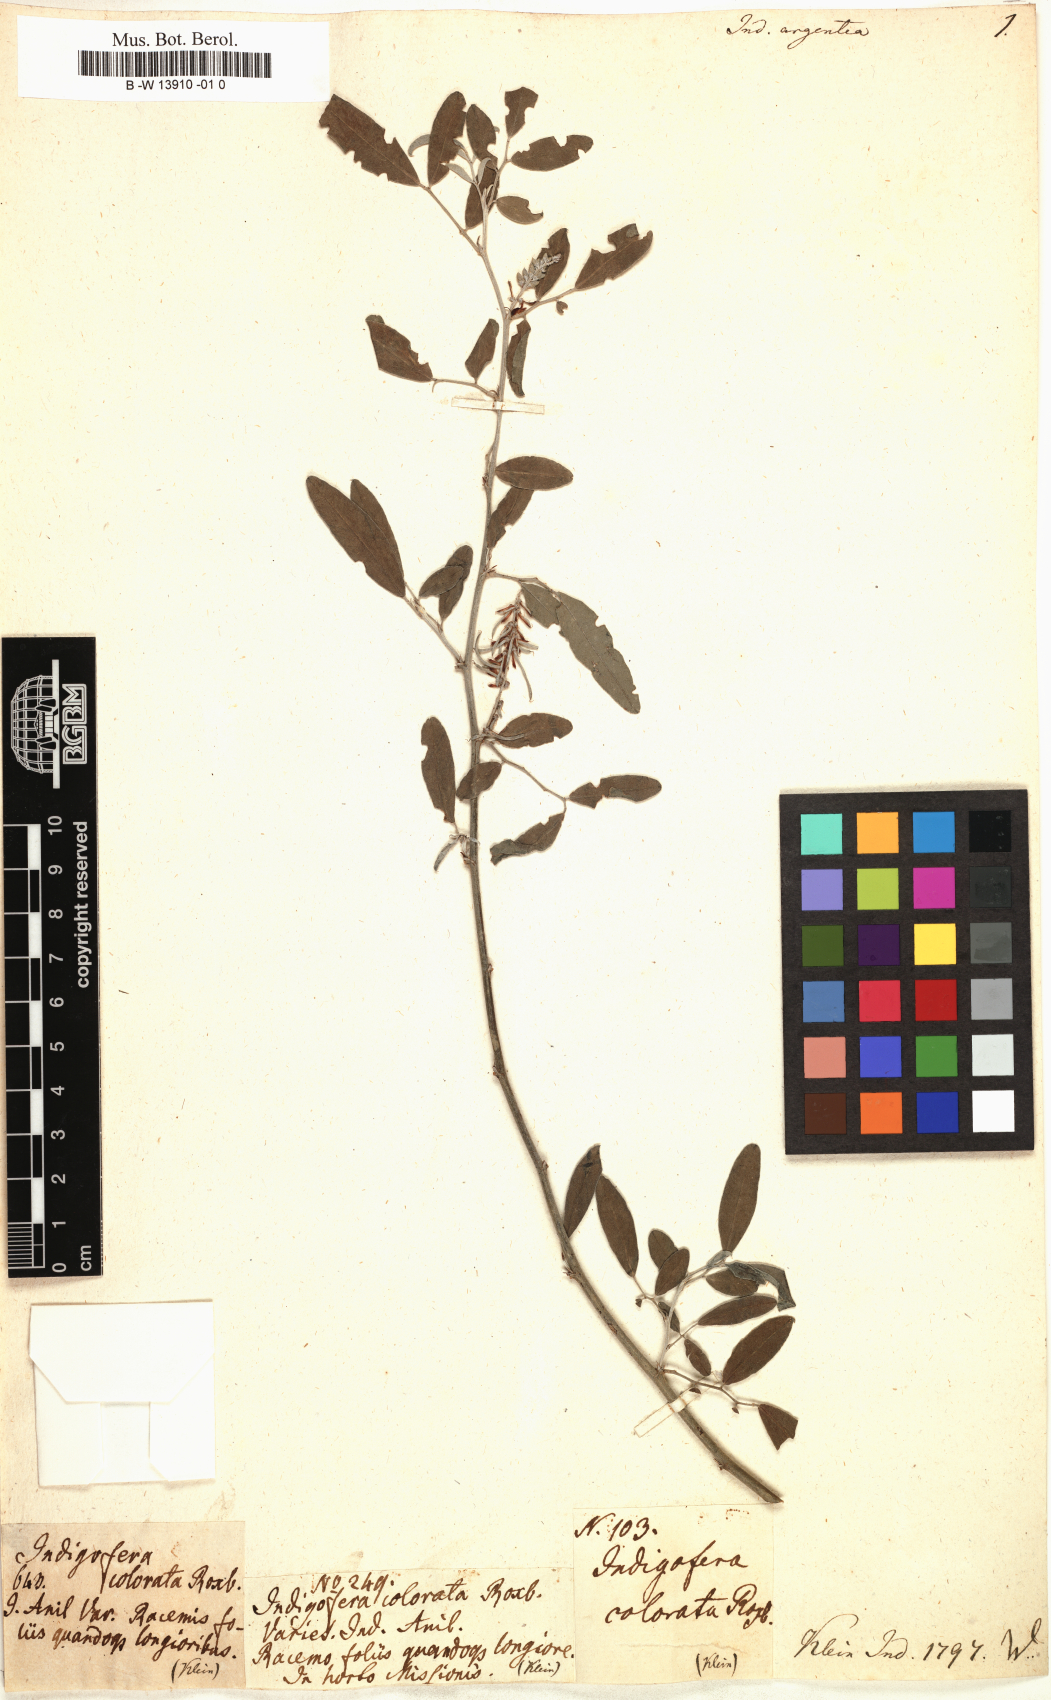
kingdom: Plantae
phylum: Tracheophyta
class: Magnoliopsida
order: Fabales
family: Fabaceae
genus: Indigofera
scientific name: Indigofera argentea
